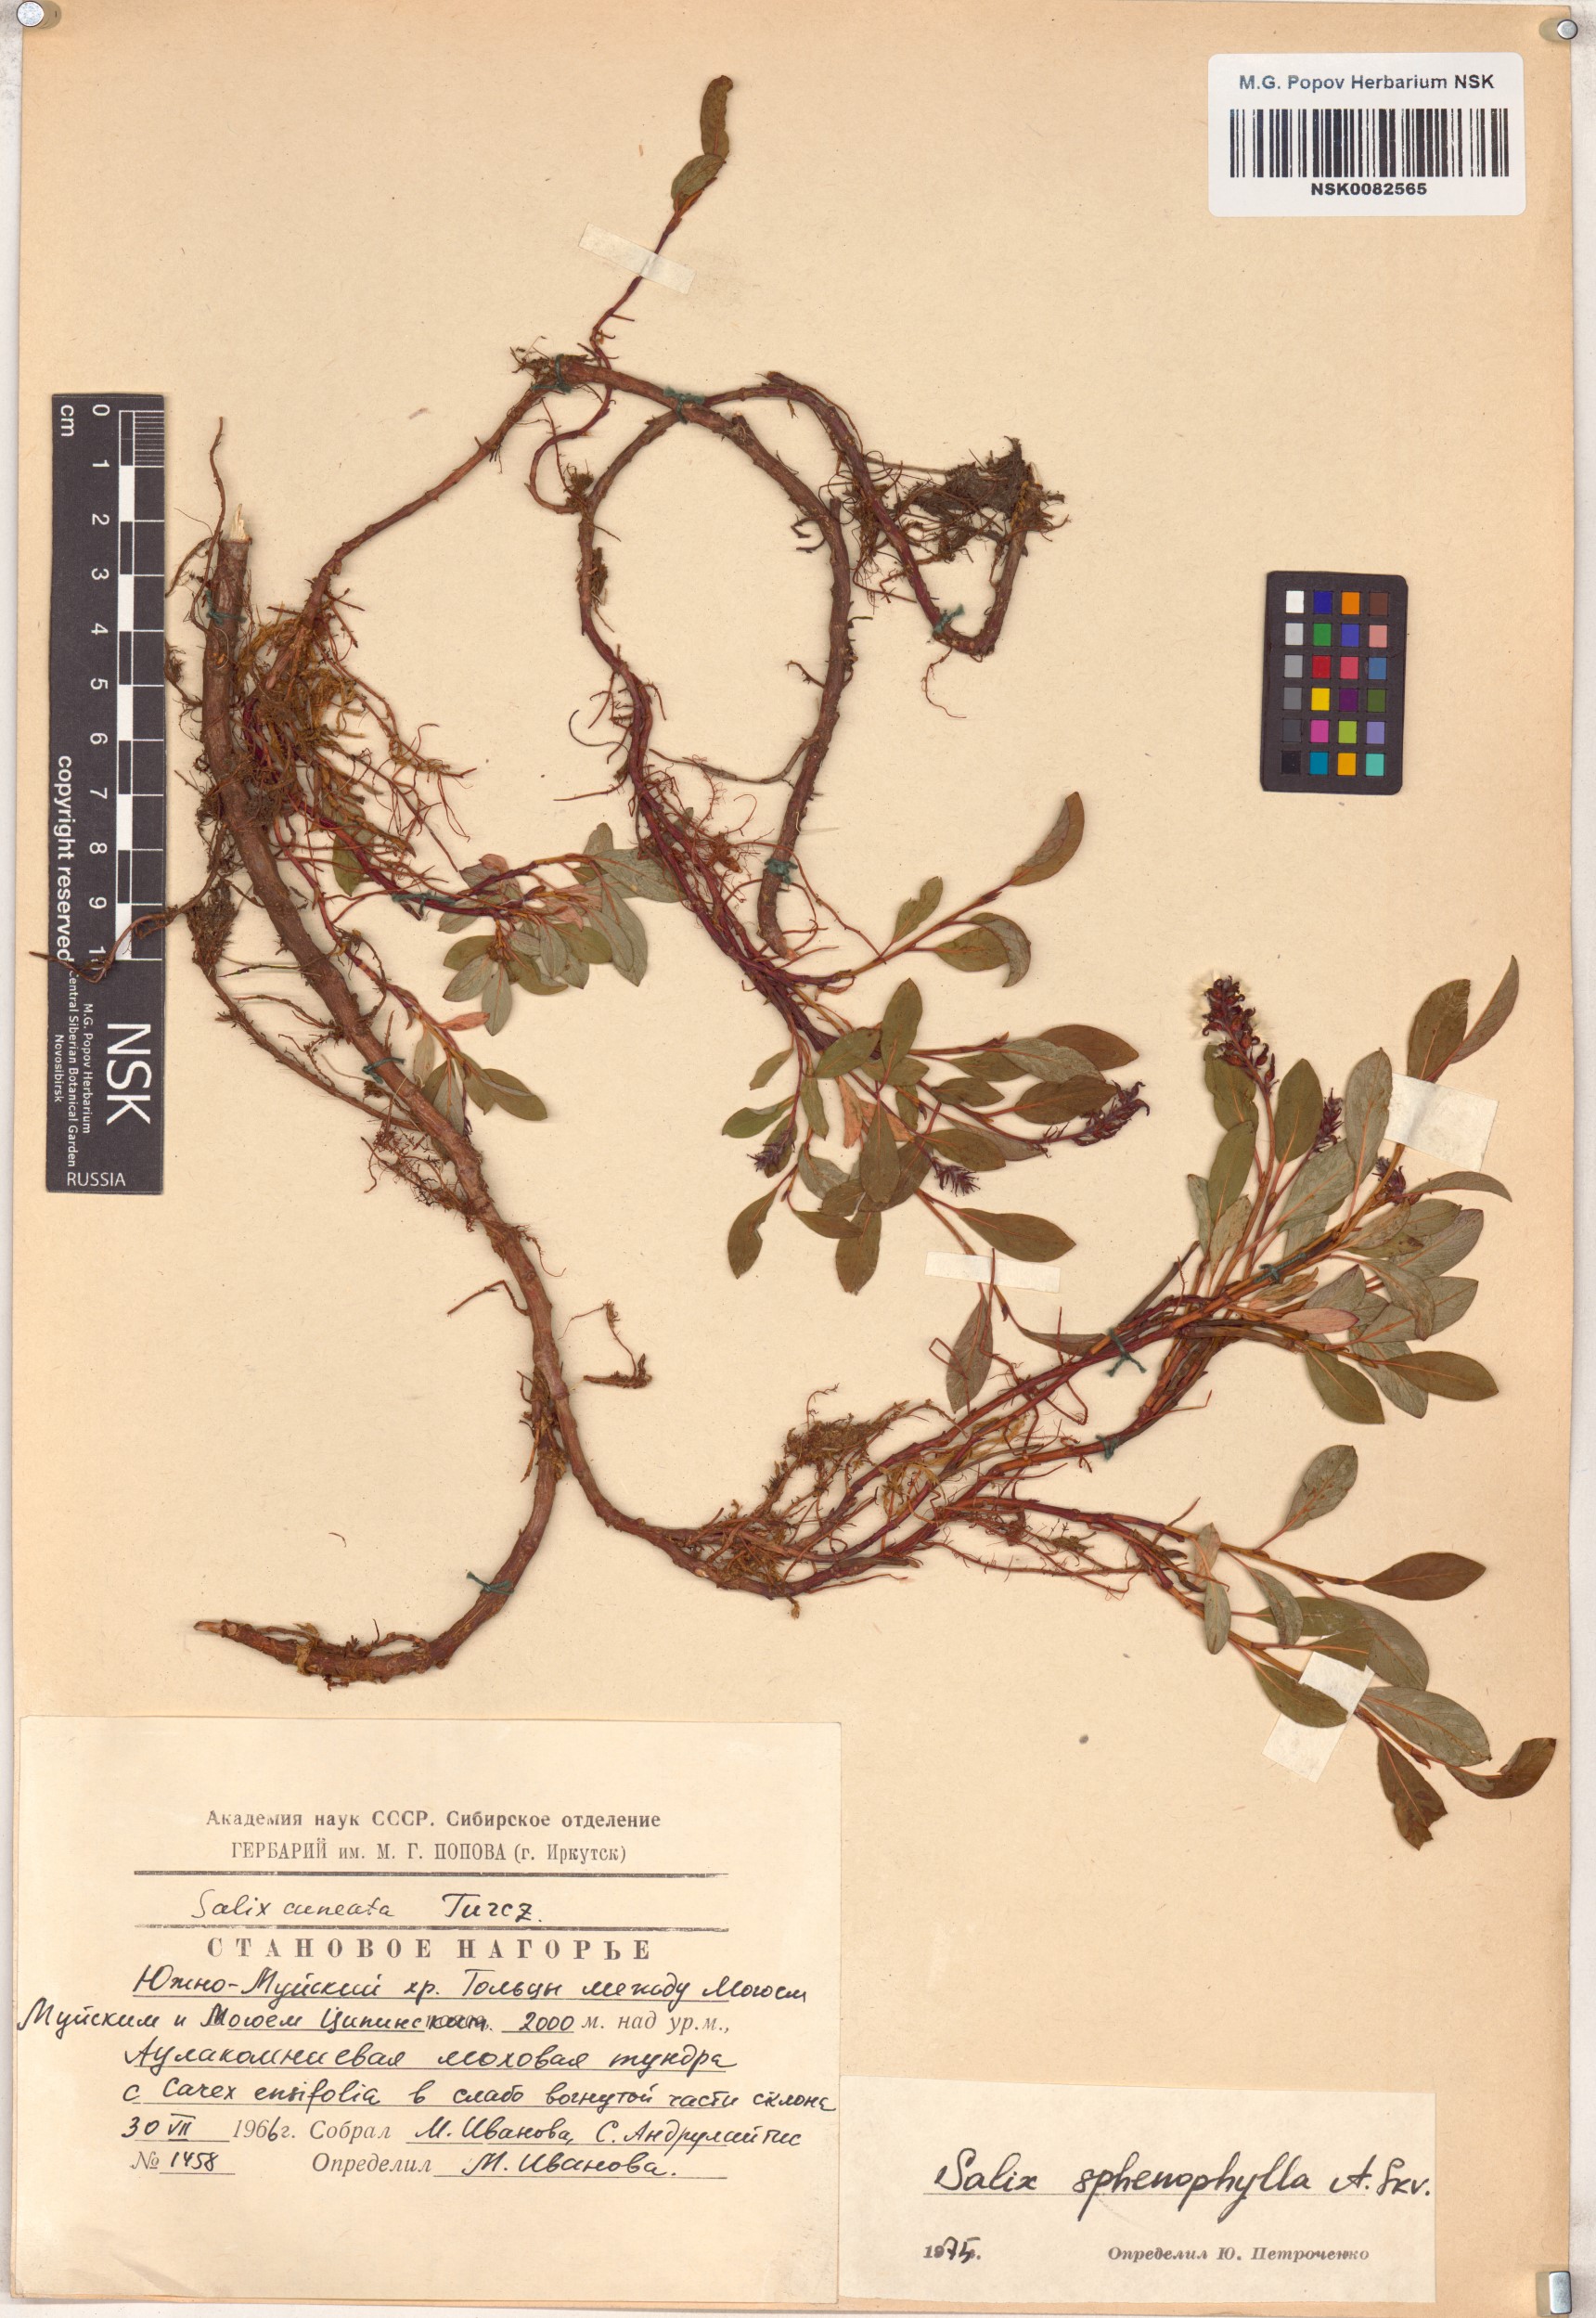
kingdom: Plantae
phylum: Tracheophyta
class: Magnoliopsida
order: Malpighiales
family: Salicaceae
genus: Salix
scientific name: Salix sphenophylla
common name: Wedge-leaved willow
